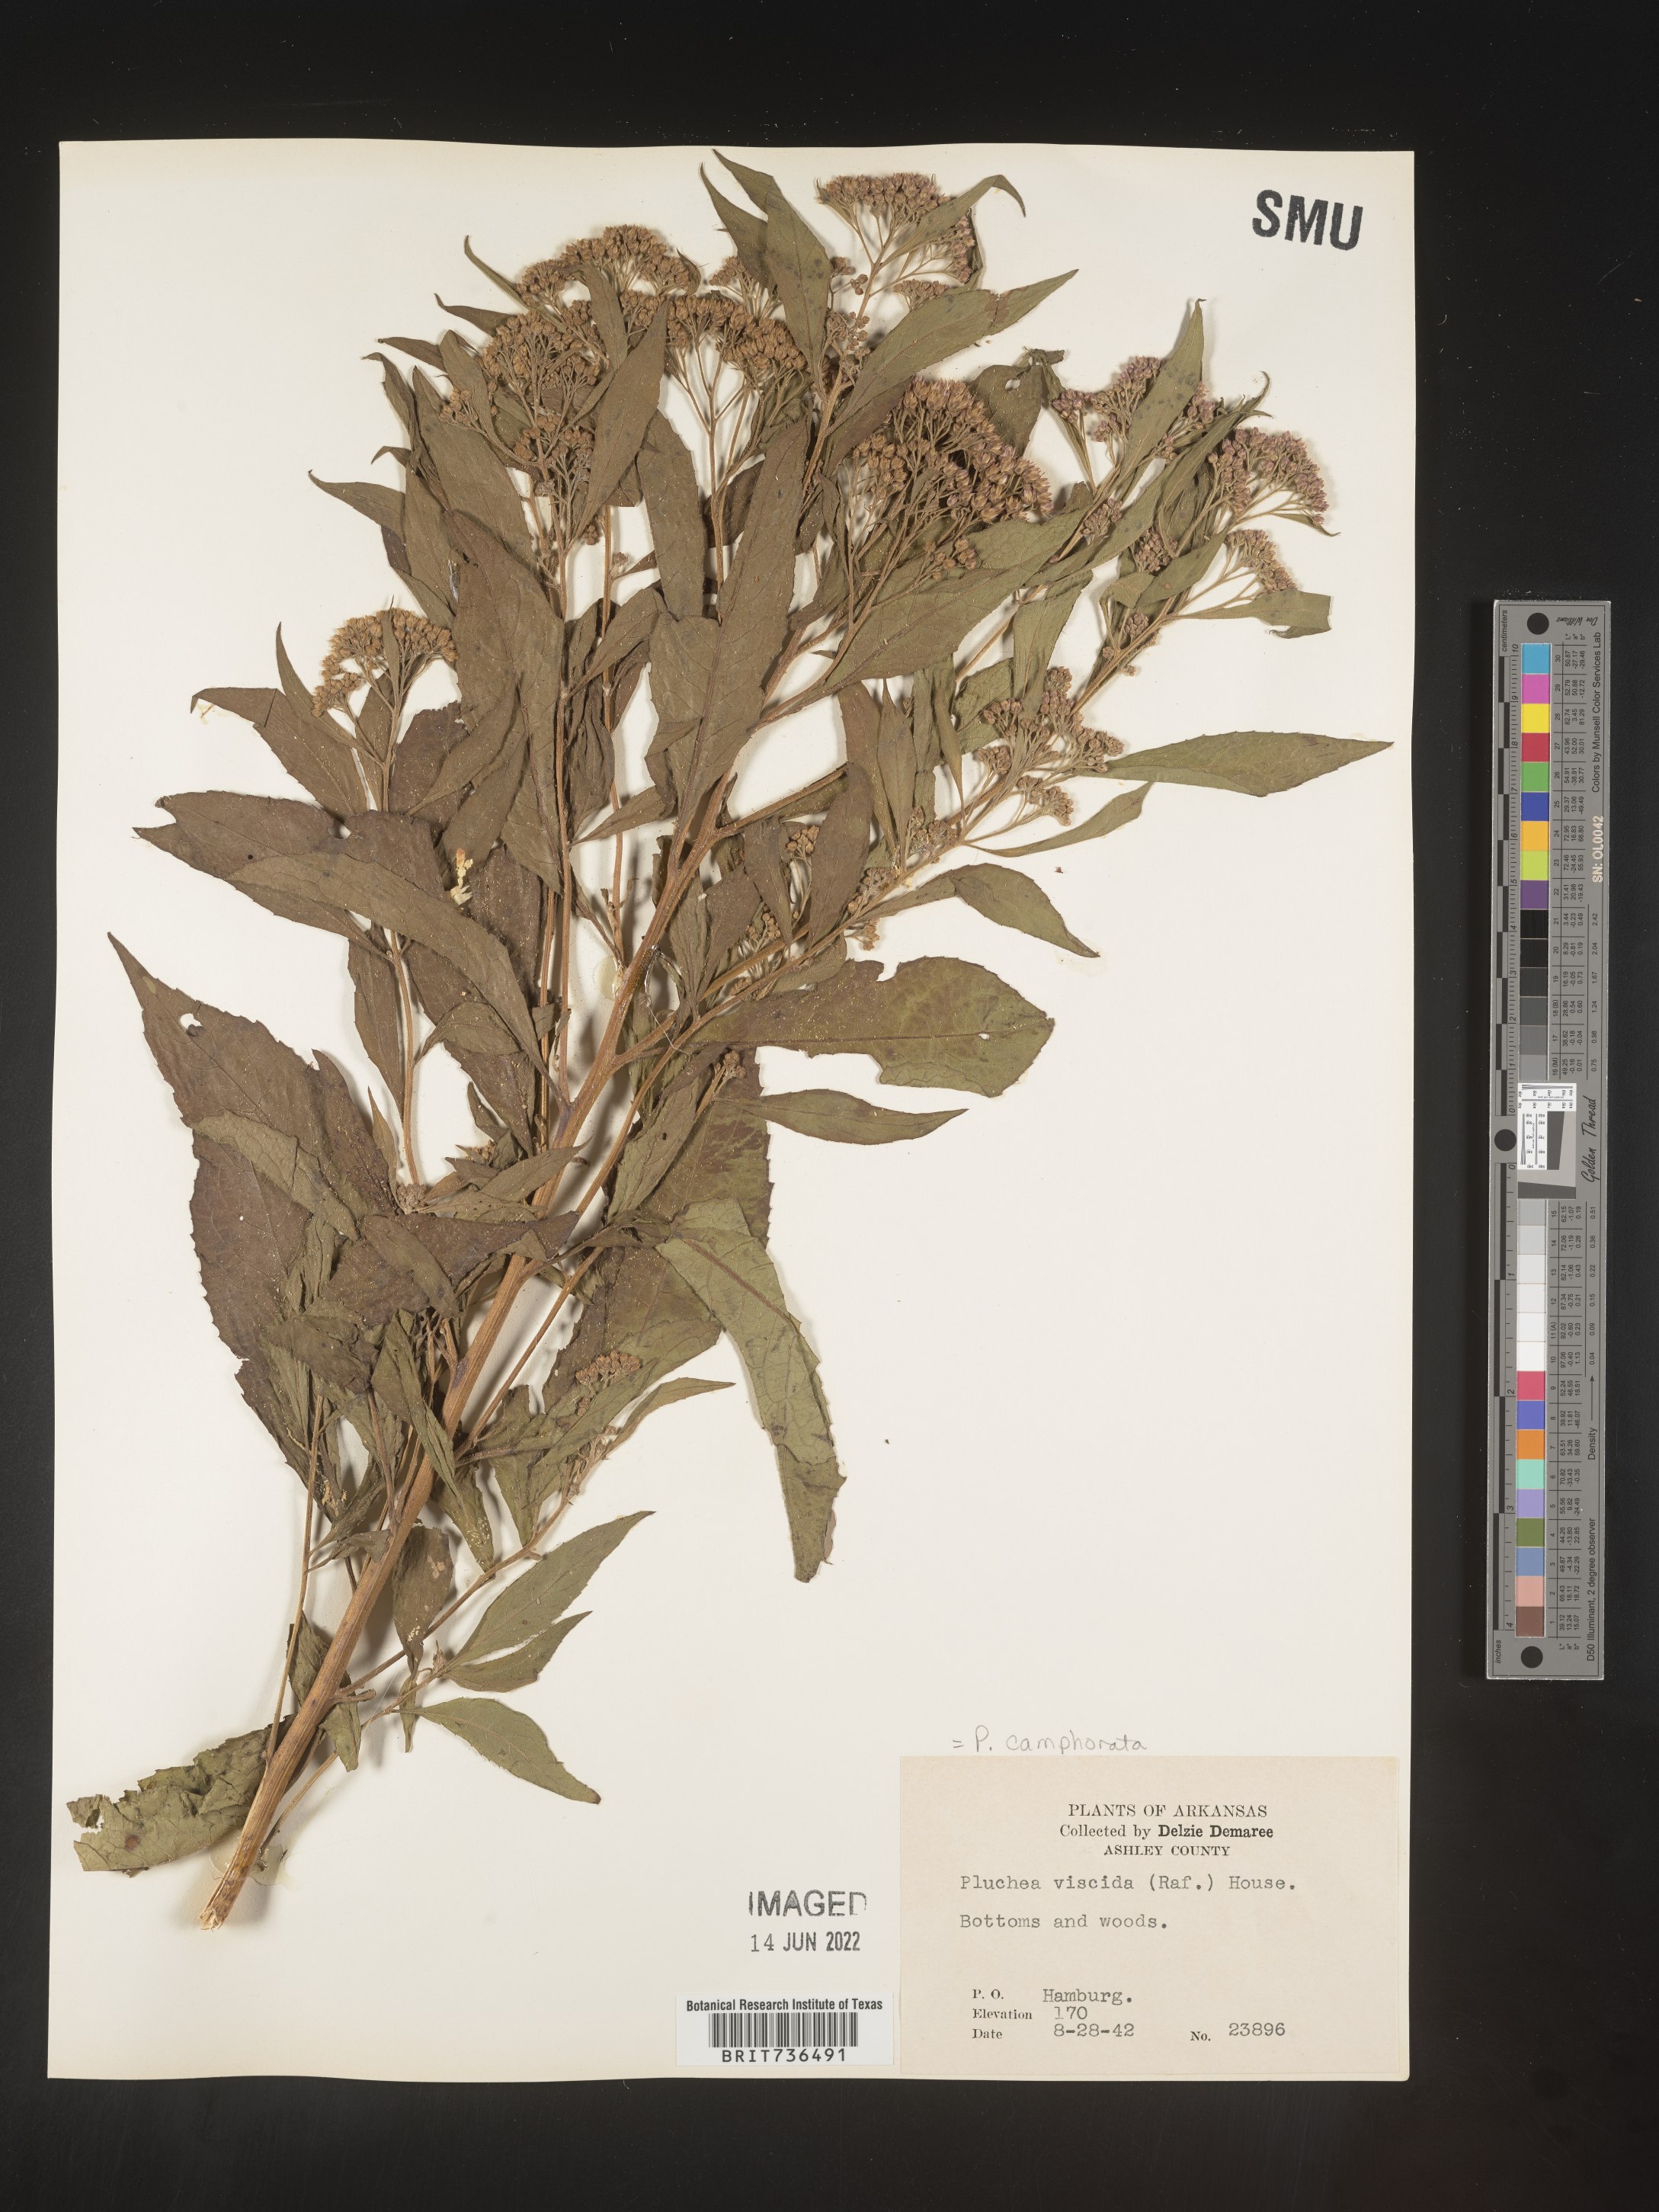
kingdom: Plantae
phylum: Tracheophyta
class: Magnoliopsida
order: Asterales
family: Asteraceae
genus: Pluchea
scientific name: Pluchea camphorata
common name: Camphor pluchea
